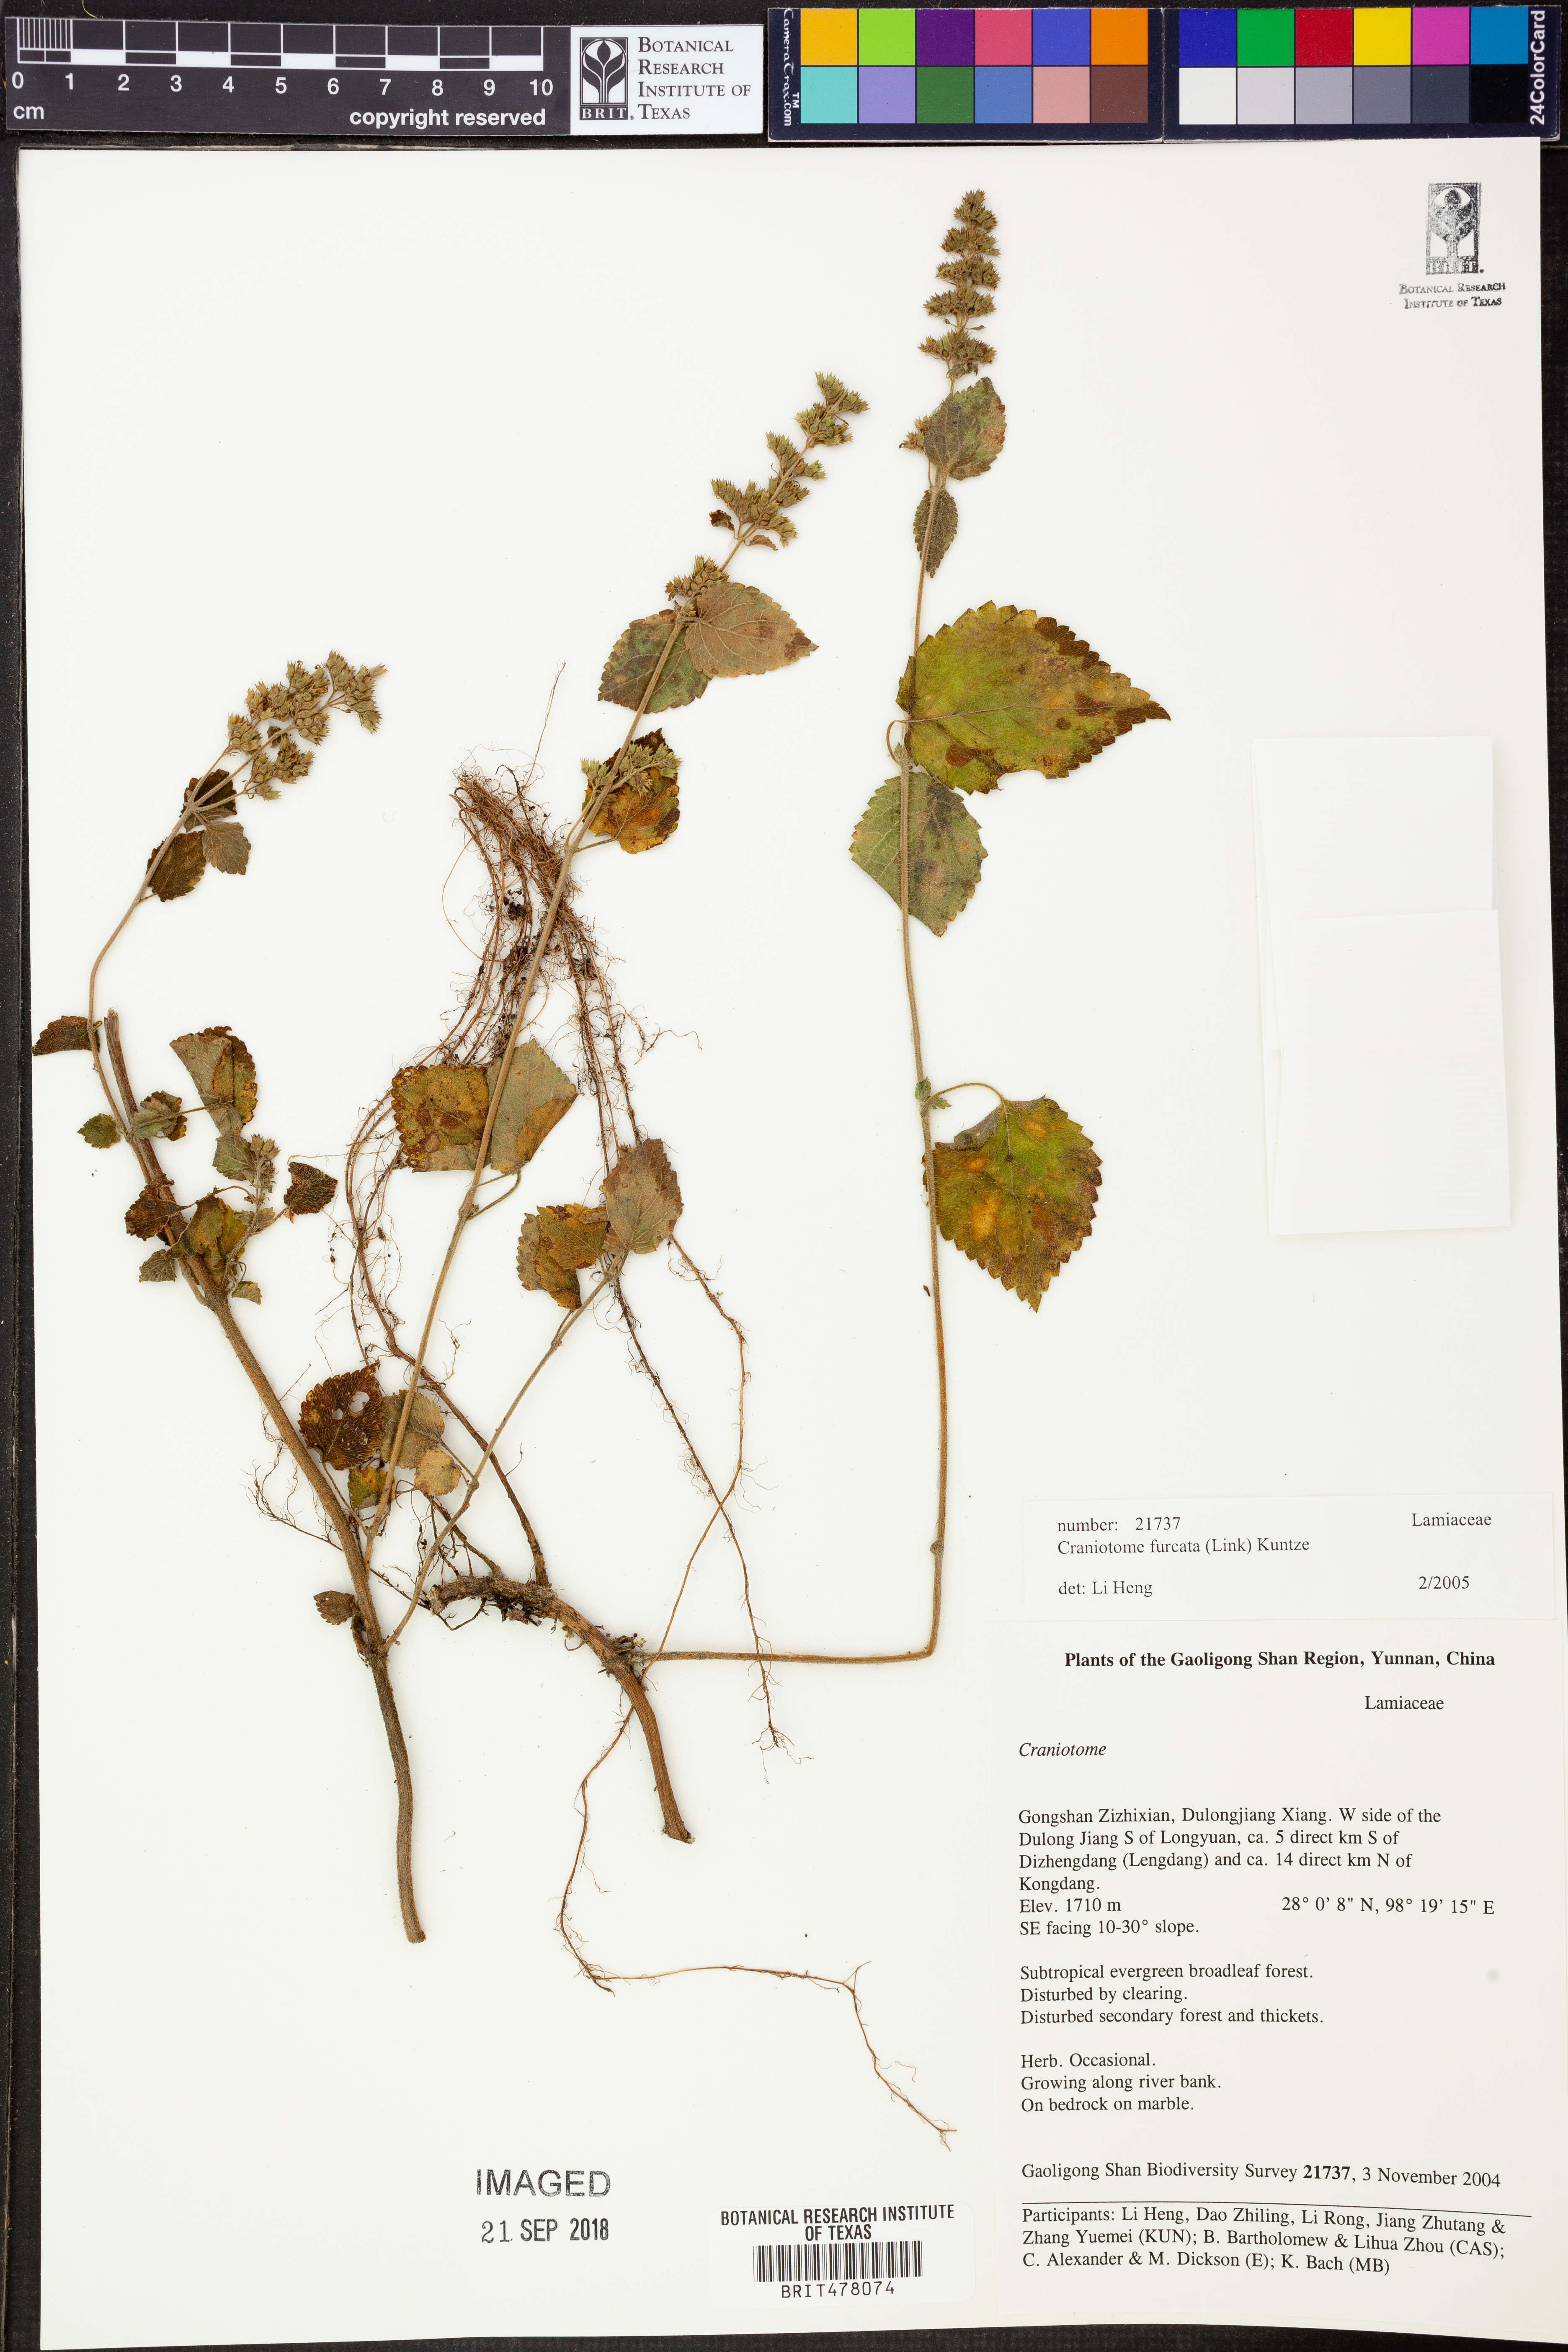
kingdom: Plantae
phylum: Tracheophyta
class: Magnoliopsida
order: Lamiales
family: Lamiaceae
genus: Craniotome
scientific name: Craniotome furcata
